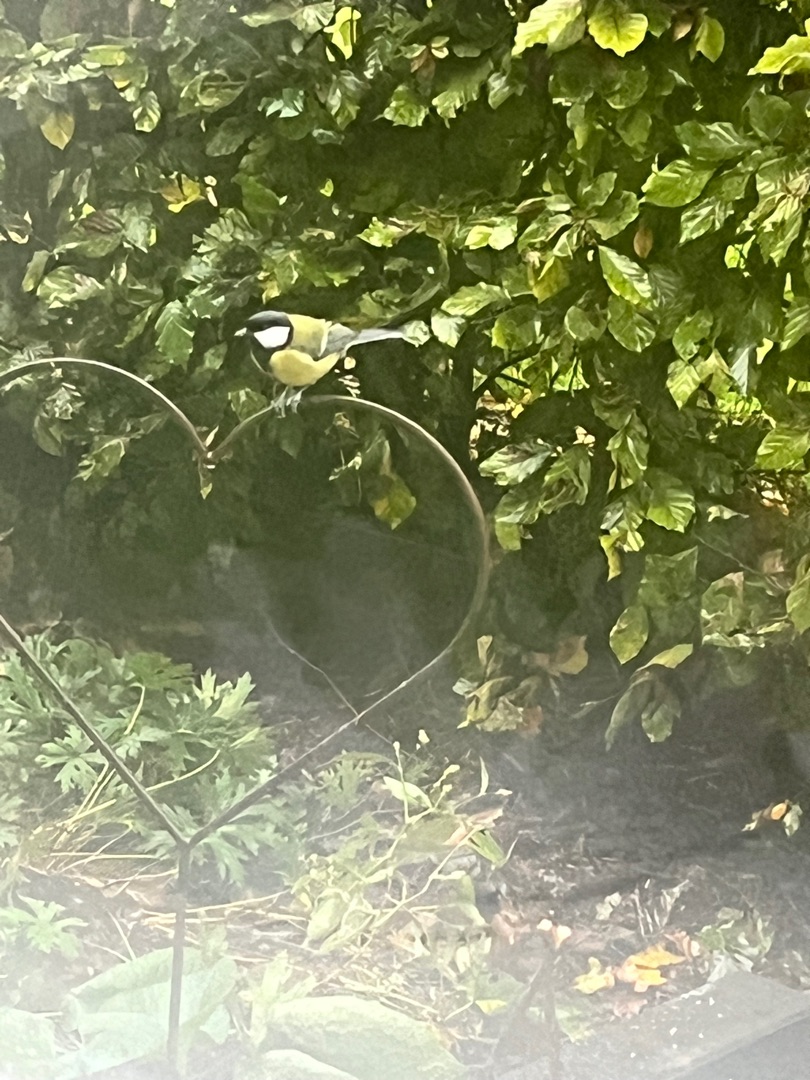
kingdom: Animalia
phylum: Chordata
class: Aves
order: Passeriformes
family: Paridae
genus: Parus
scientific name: Parus major
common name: Musvit
